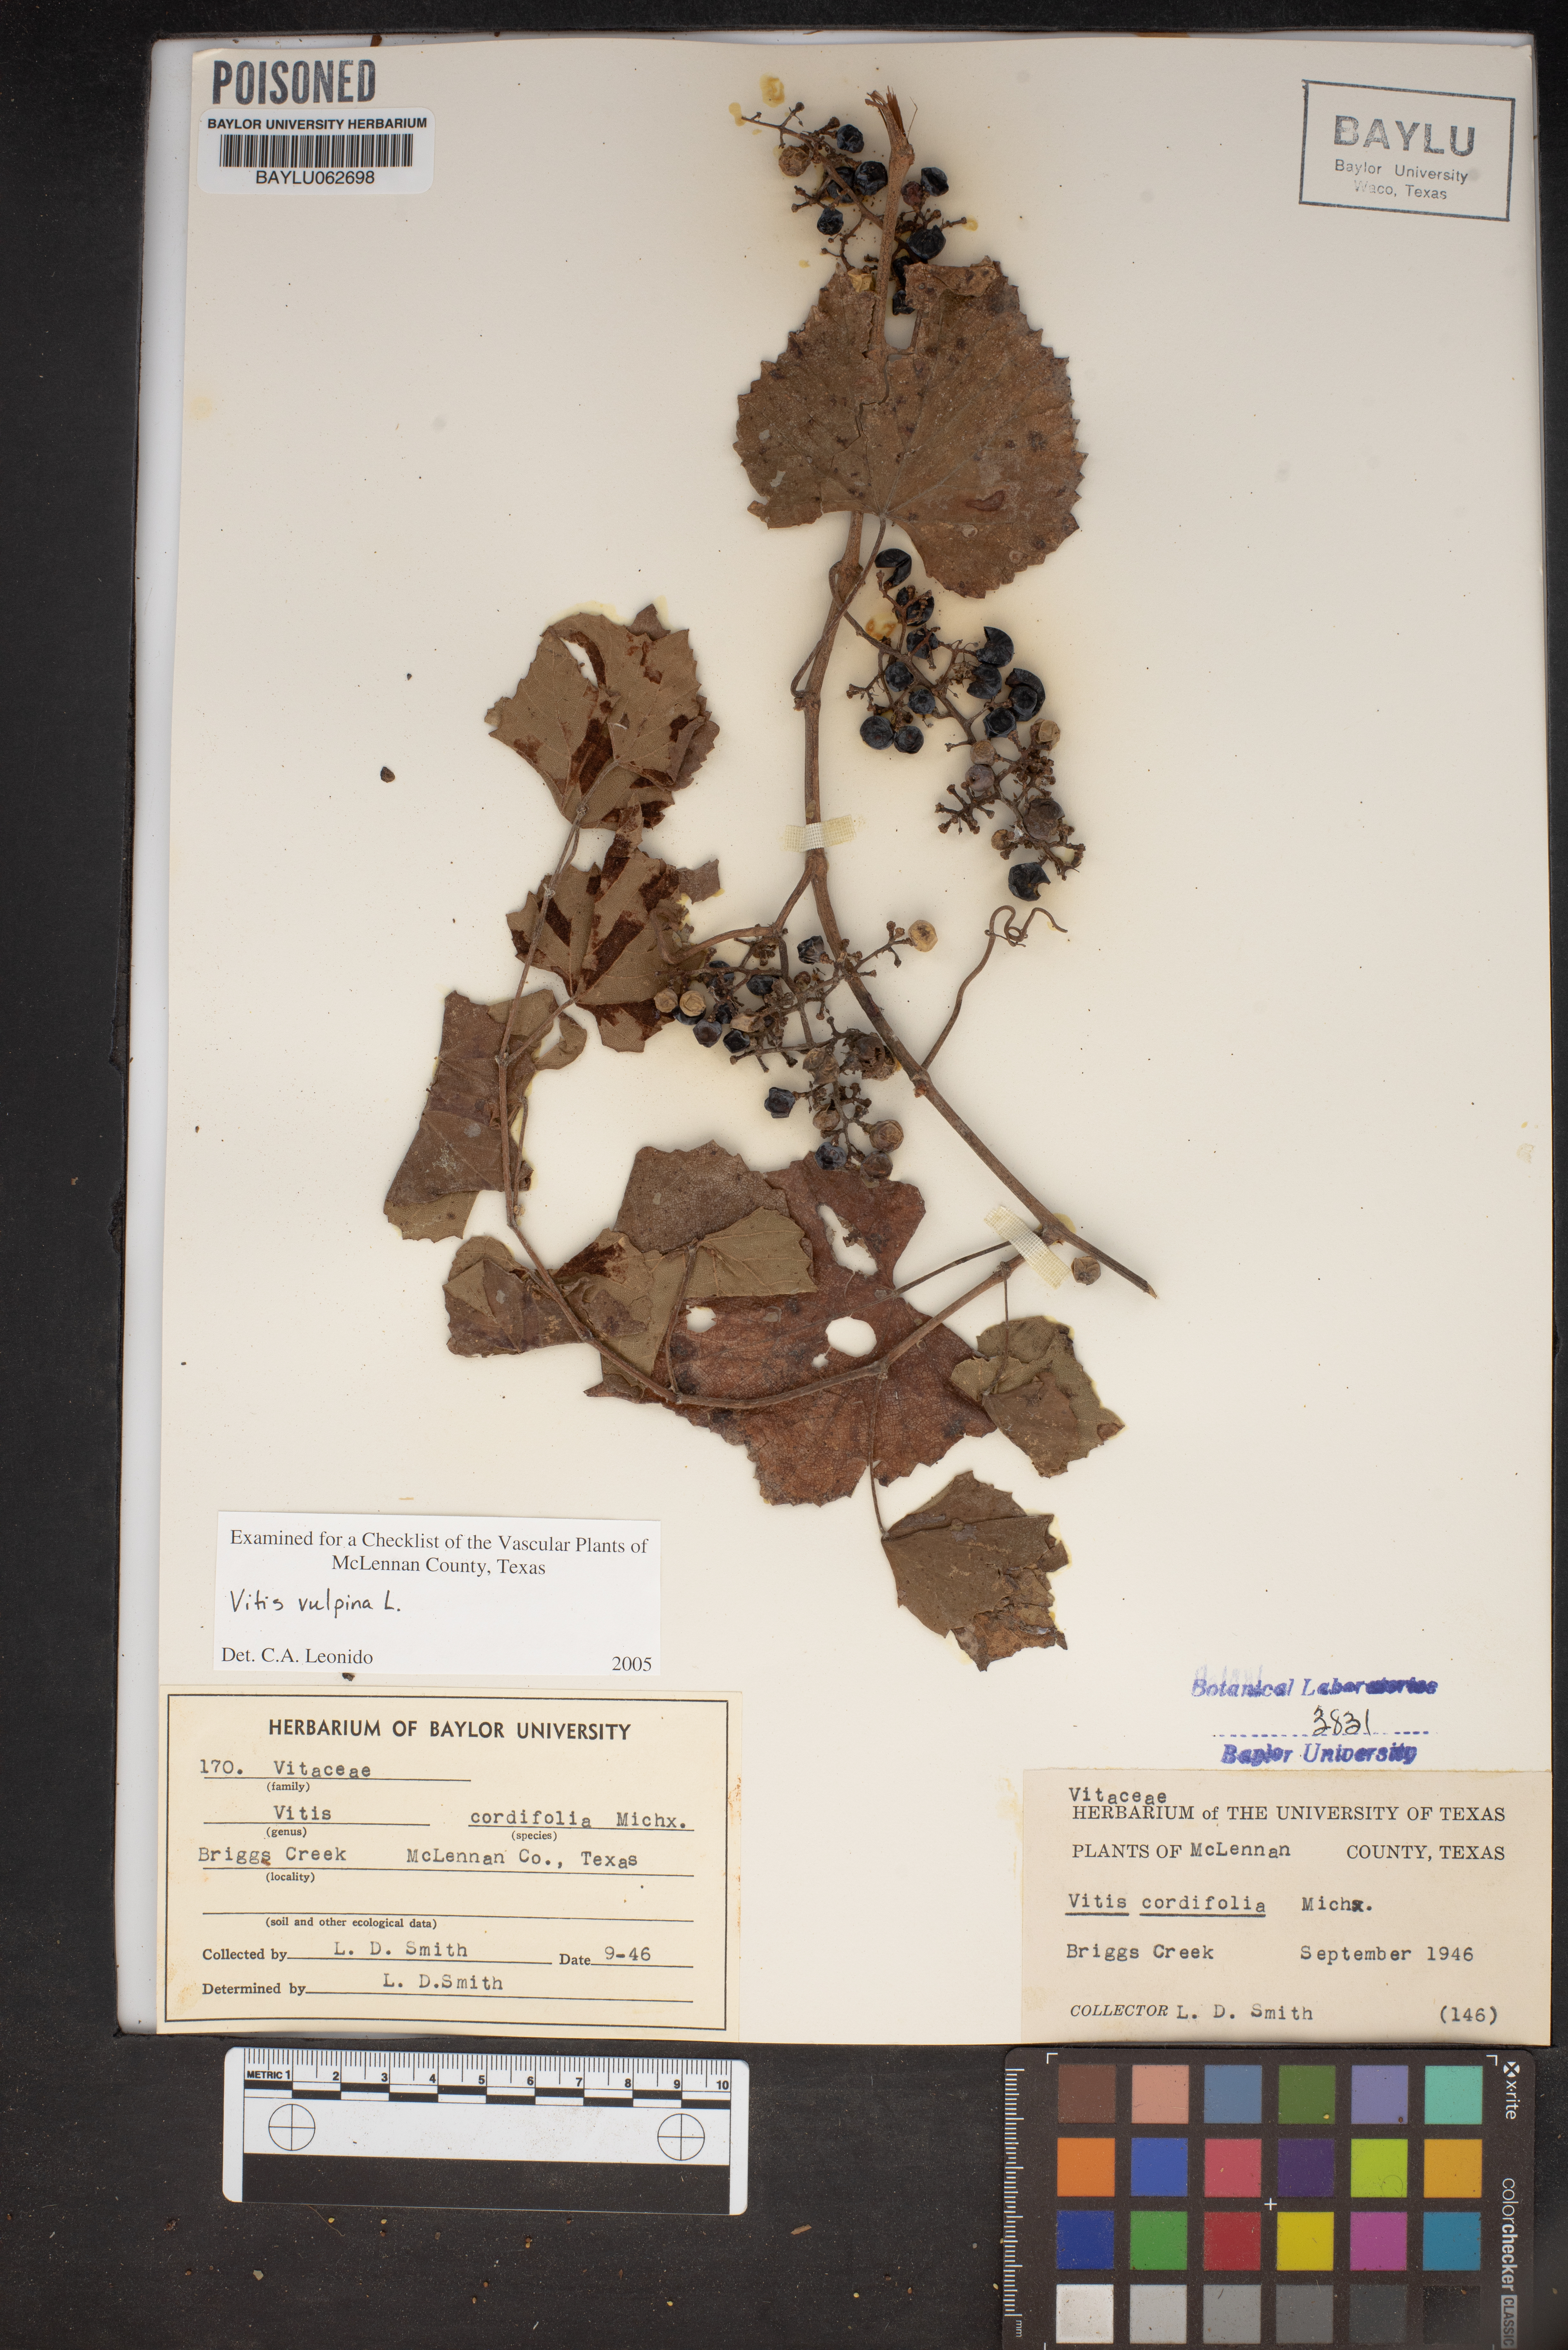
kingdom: Plantae
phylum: Tracheophyta
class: Magnoliopsida
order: Vitales
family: Vitaceae
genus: Vitis
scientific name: Vitis cordifolia
